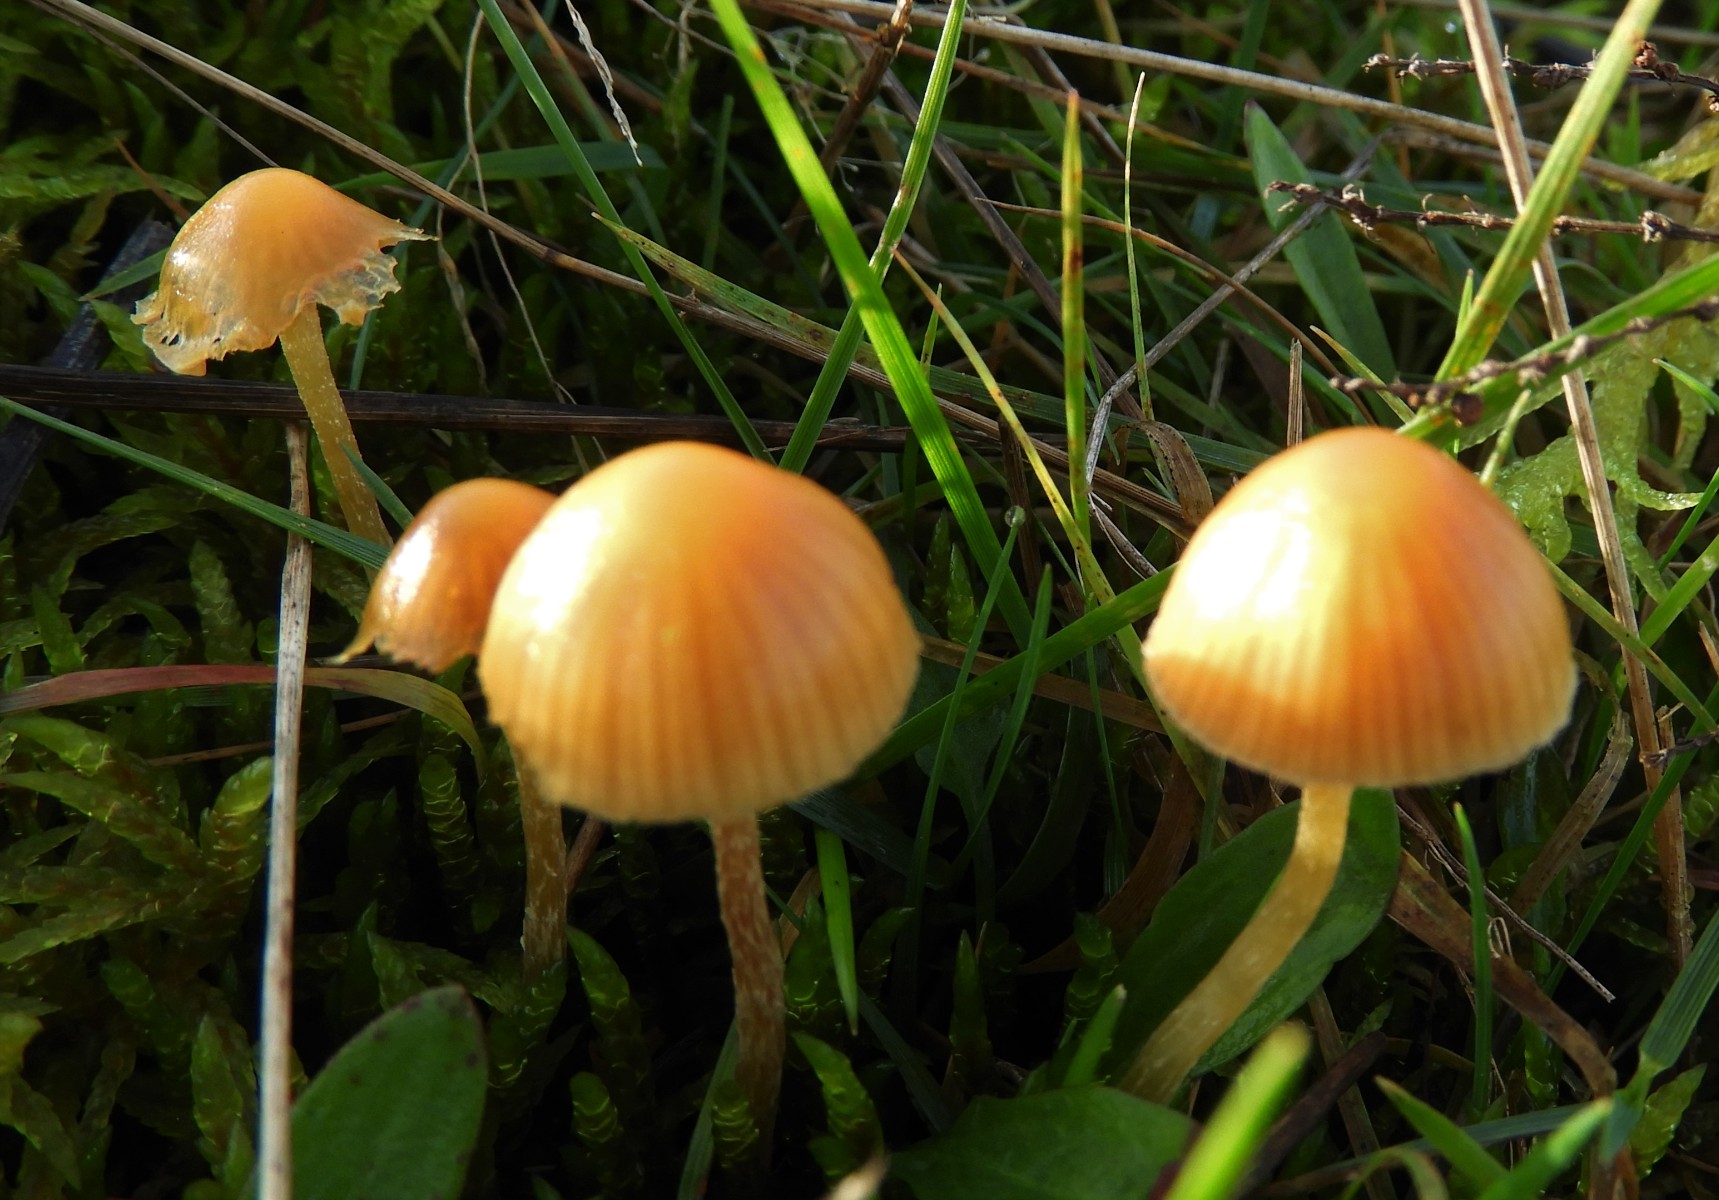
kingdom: Fungi
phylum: Basidiomycota
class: Agaricomycetes
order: Agaricales
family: Hymenogastraceae
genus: Galerina
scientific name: Galerina
